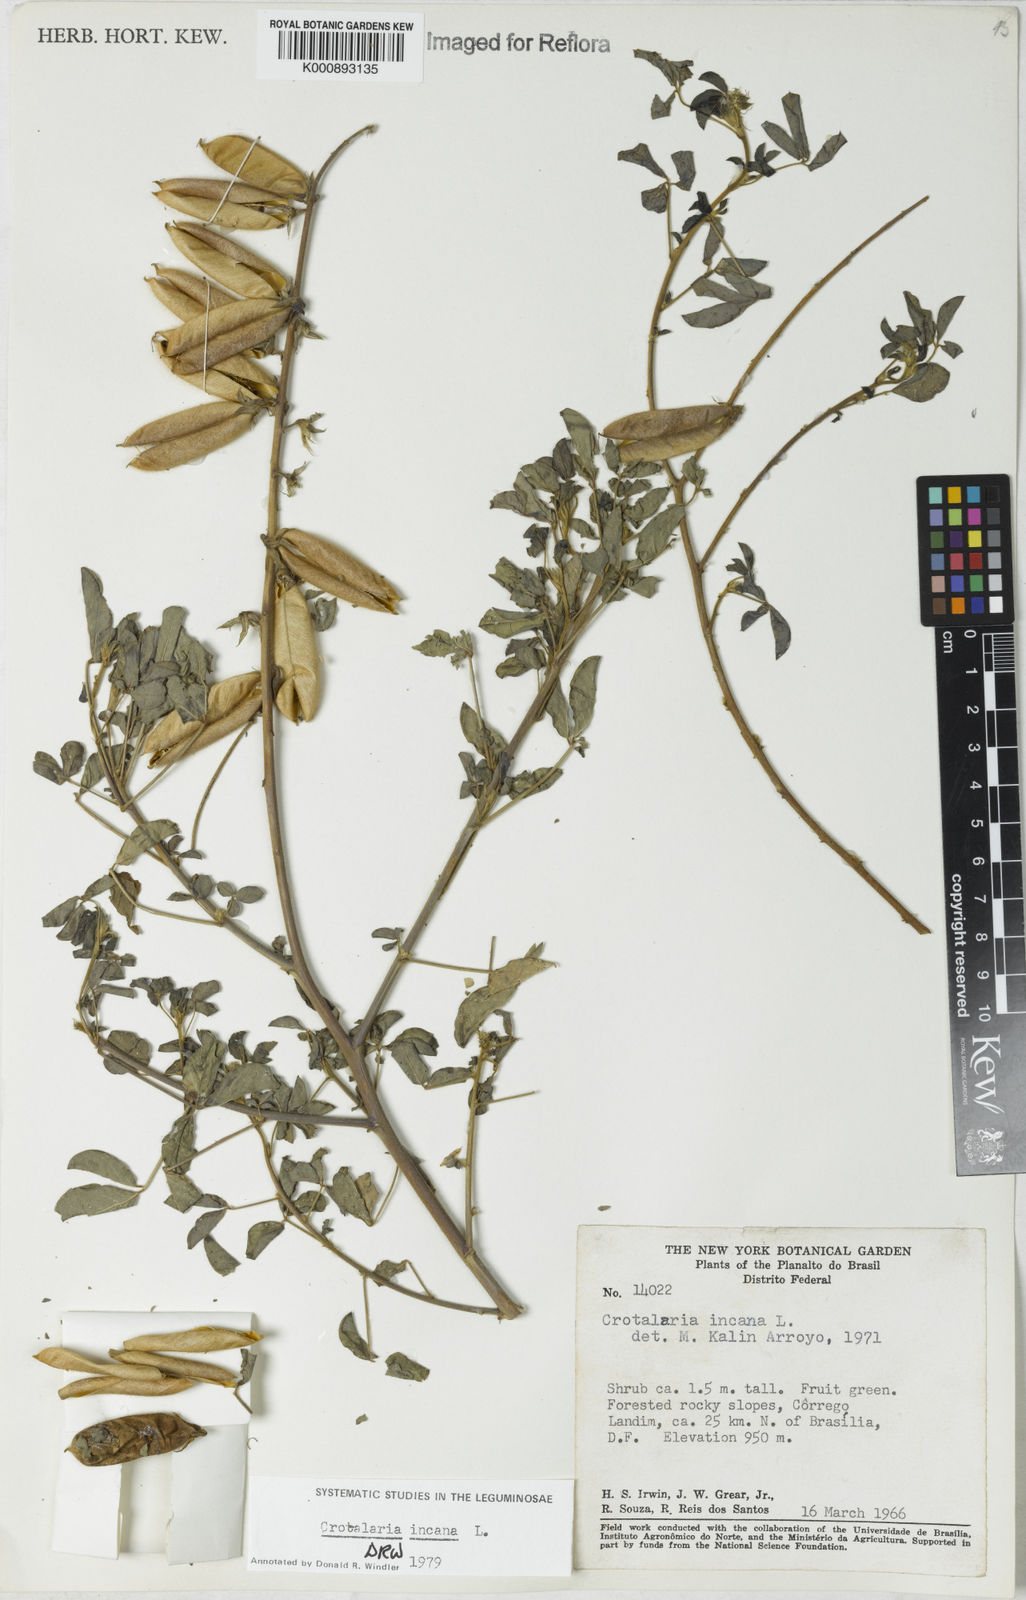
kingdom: Plantae
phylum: Tracheophyta
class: Magnoliopsida
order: Fabales
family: Fabaceae
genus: Crotalaria
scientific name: Crotalaria incana
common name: Shakeshake
